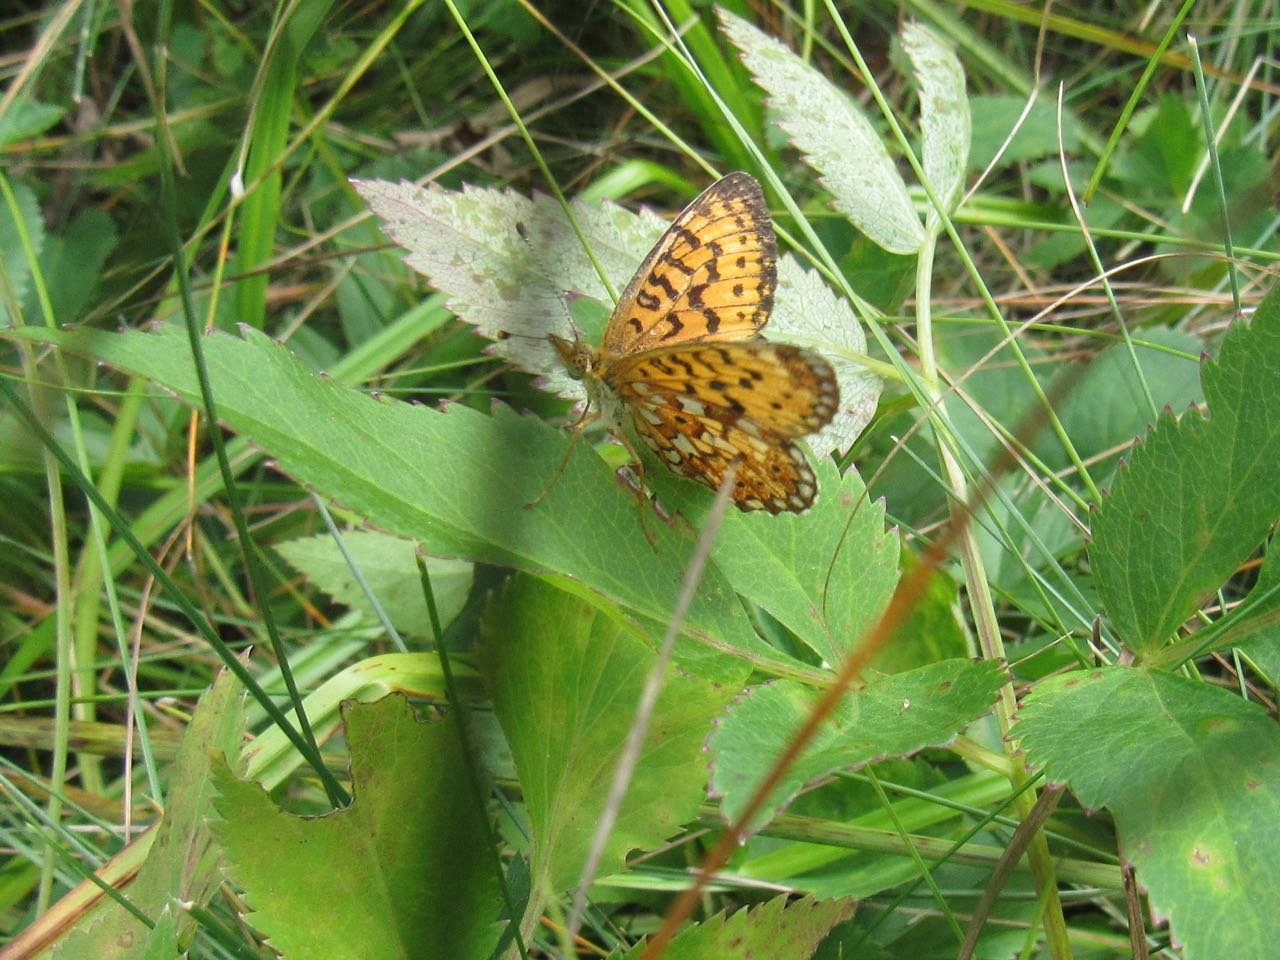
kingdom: Animalia
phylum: Arthropoda
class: Insecta
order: Lepidoptera
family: Nymphalidae
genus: Boloria
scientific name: Boloria selene
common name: Silver-bordered Fritillary
